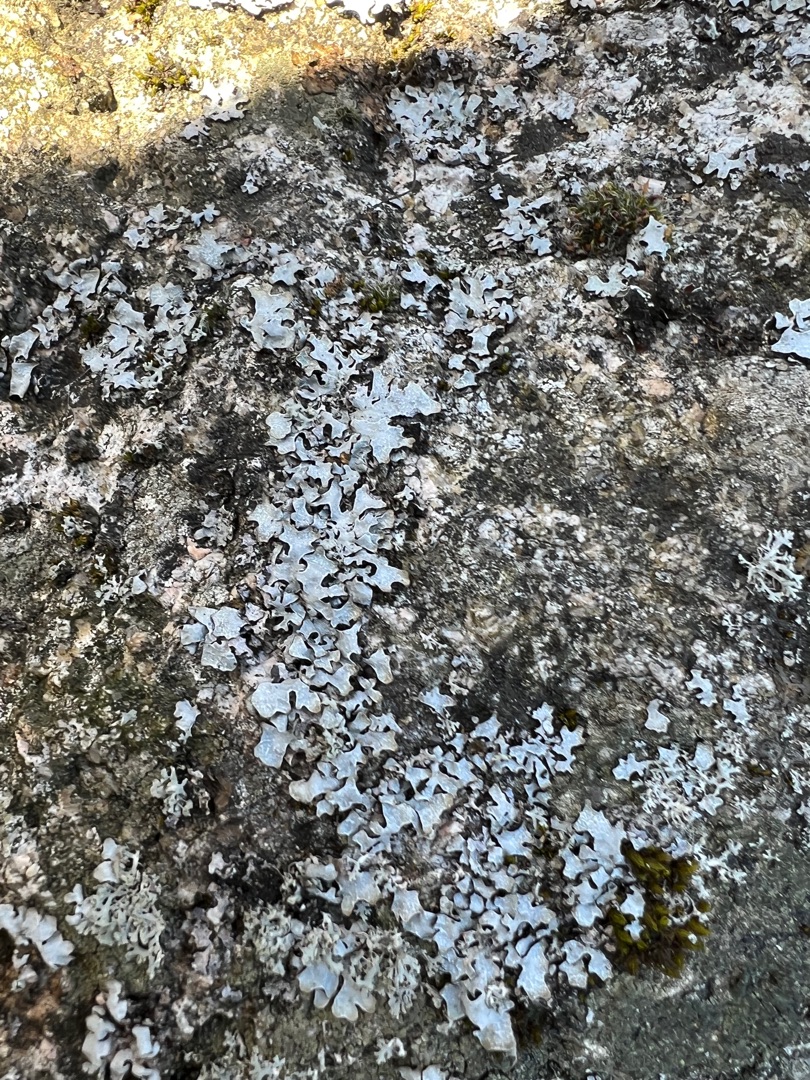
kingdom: Fungi
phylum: Ascomycota
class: Lecanoromycetes
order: Lecanorales
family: Parmeliaceae
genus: Parmelia
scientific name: Parmelia sulcata
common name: Rynket skållav
